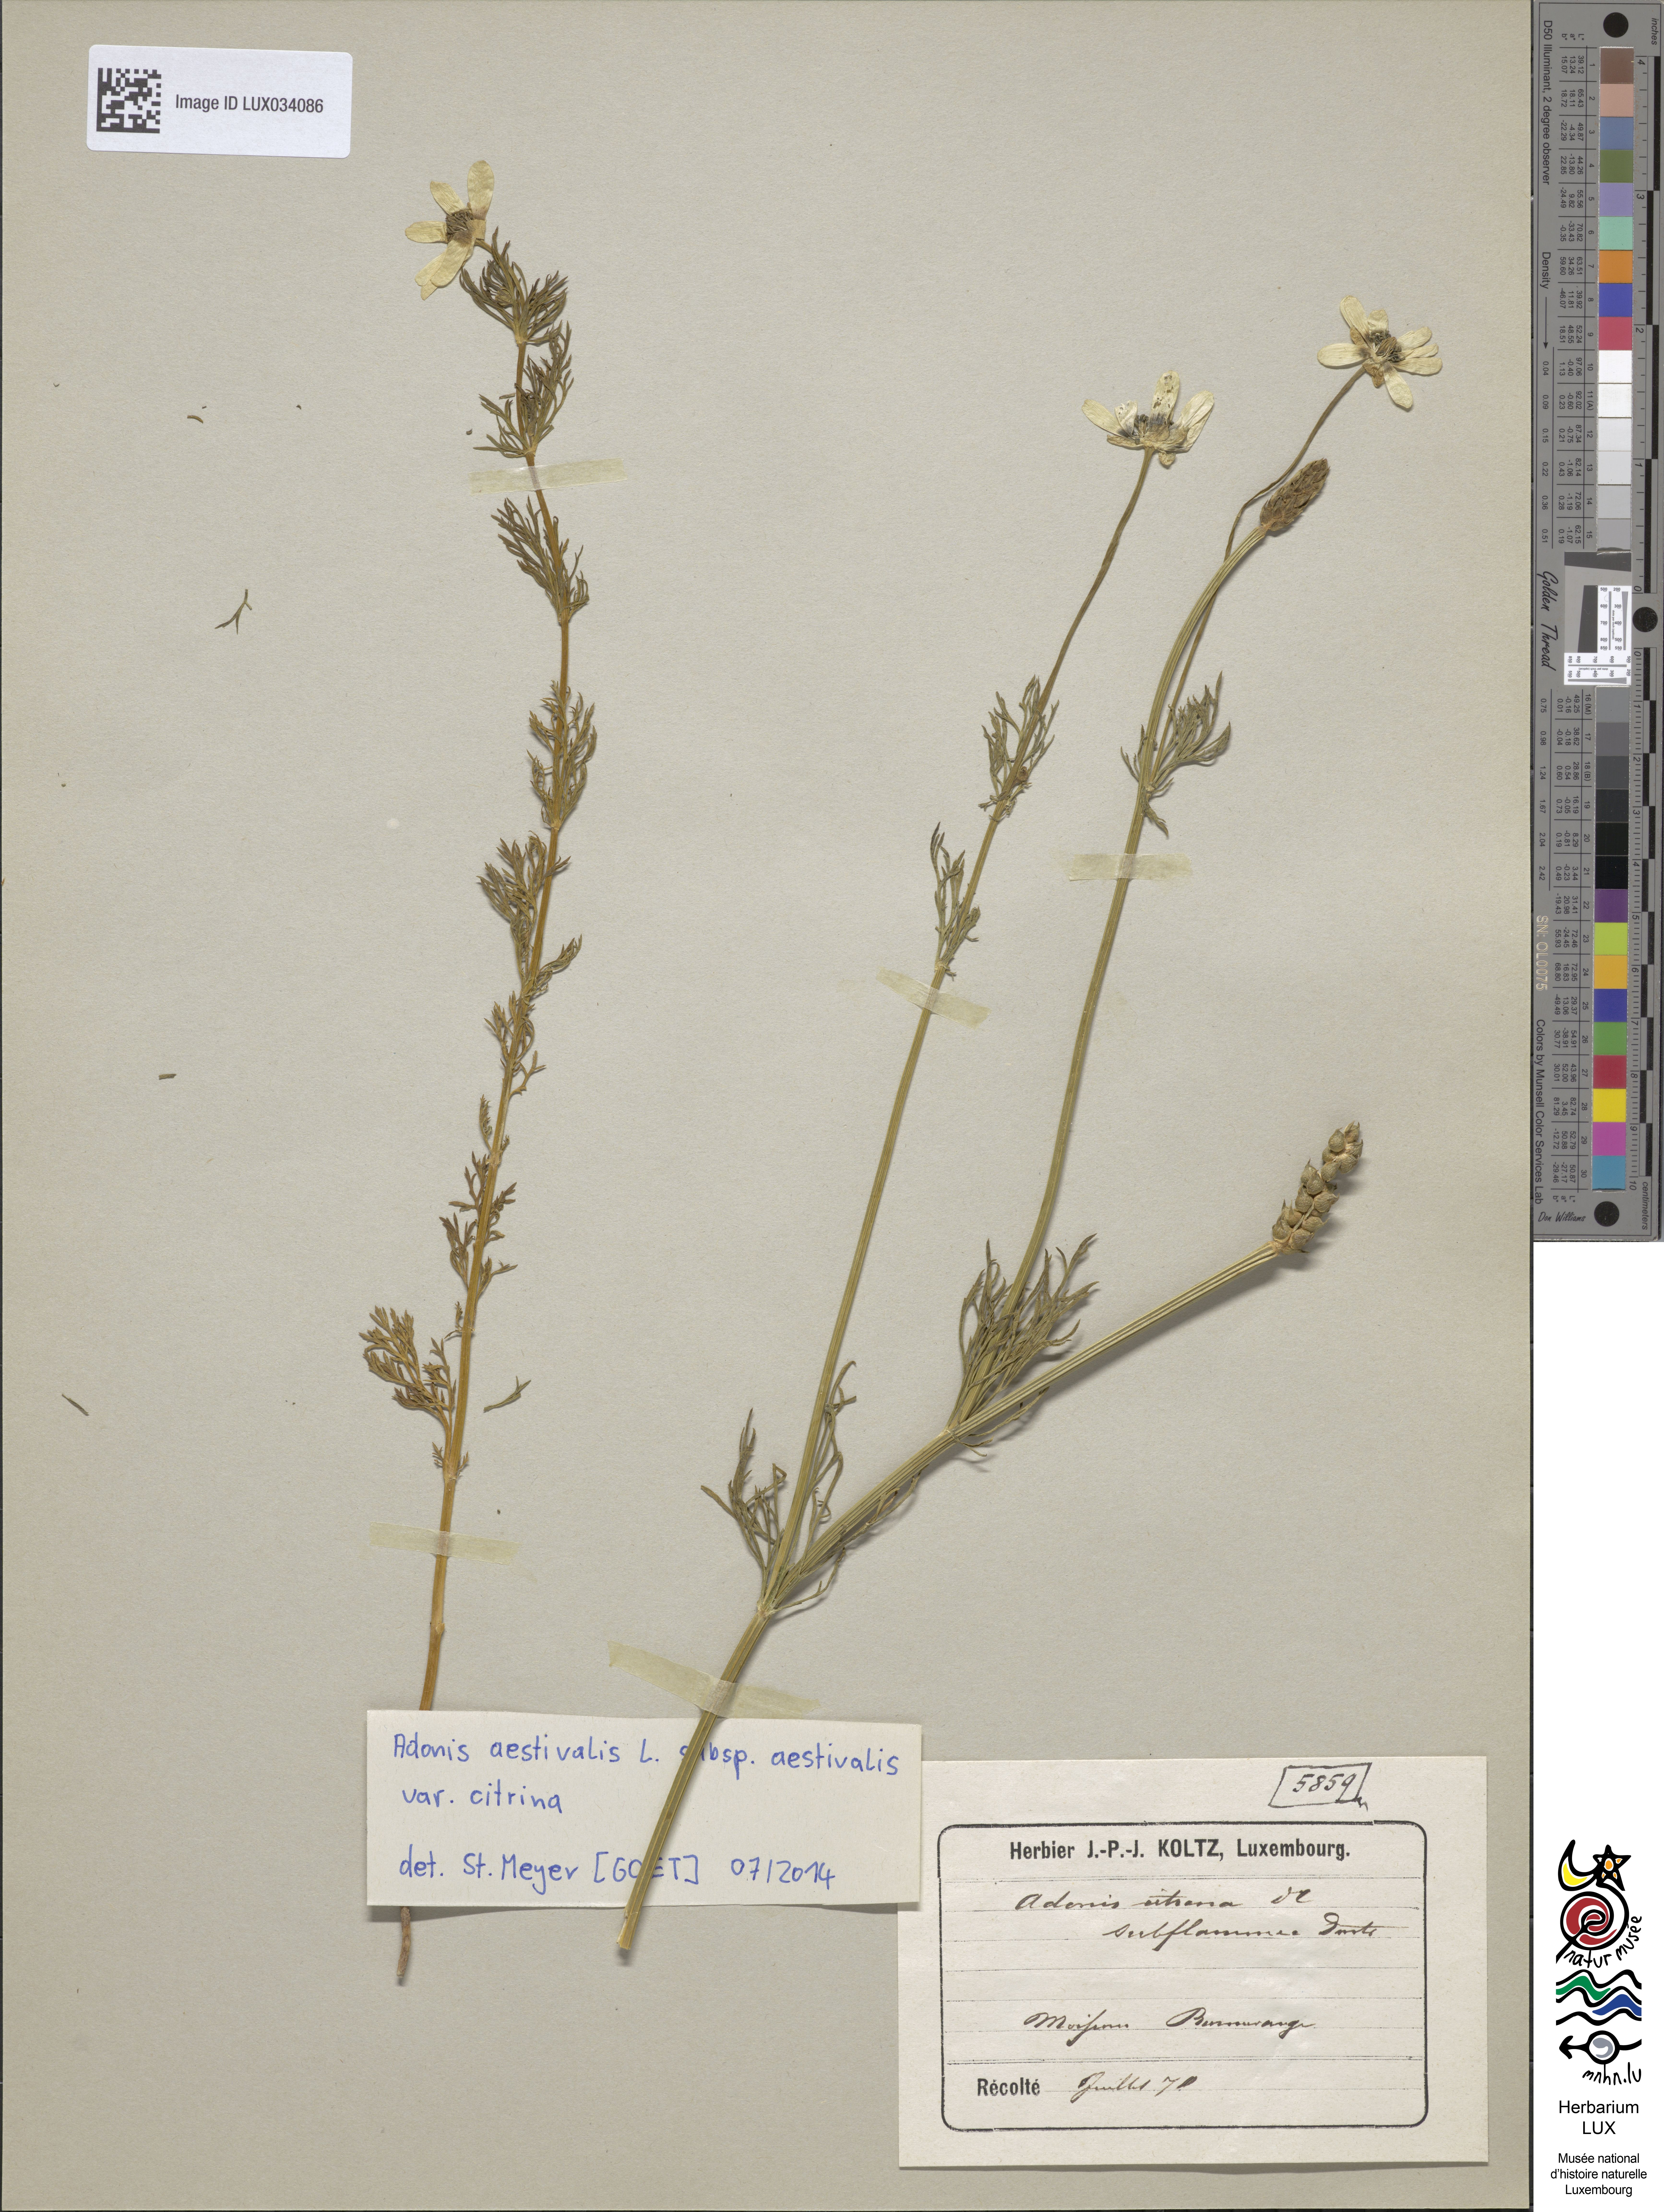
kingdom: Plantae
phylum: Tracheophyta
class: Magnoliopsida
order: Ranunculales
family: Ranunculaceae
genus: Adonis
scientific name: Adonis aestivalis
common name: Summer pheasant's-eye
